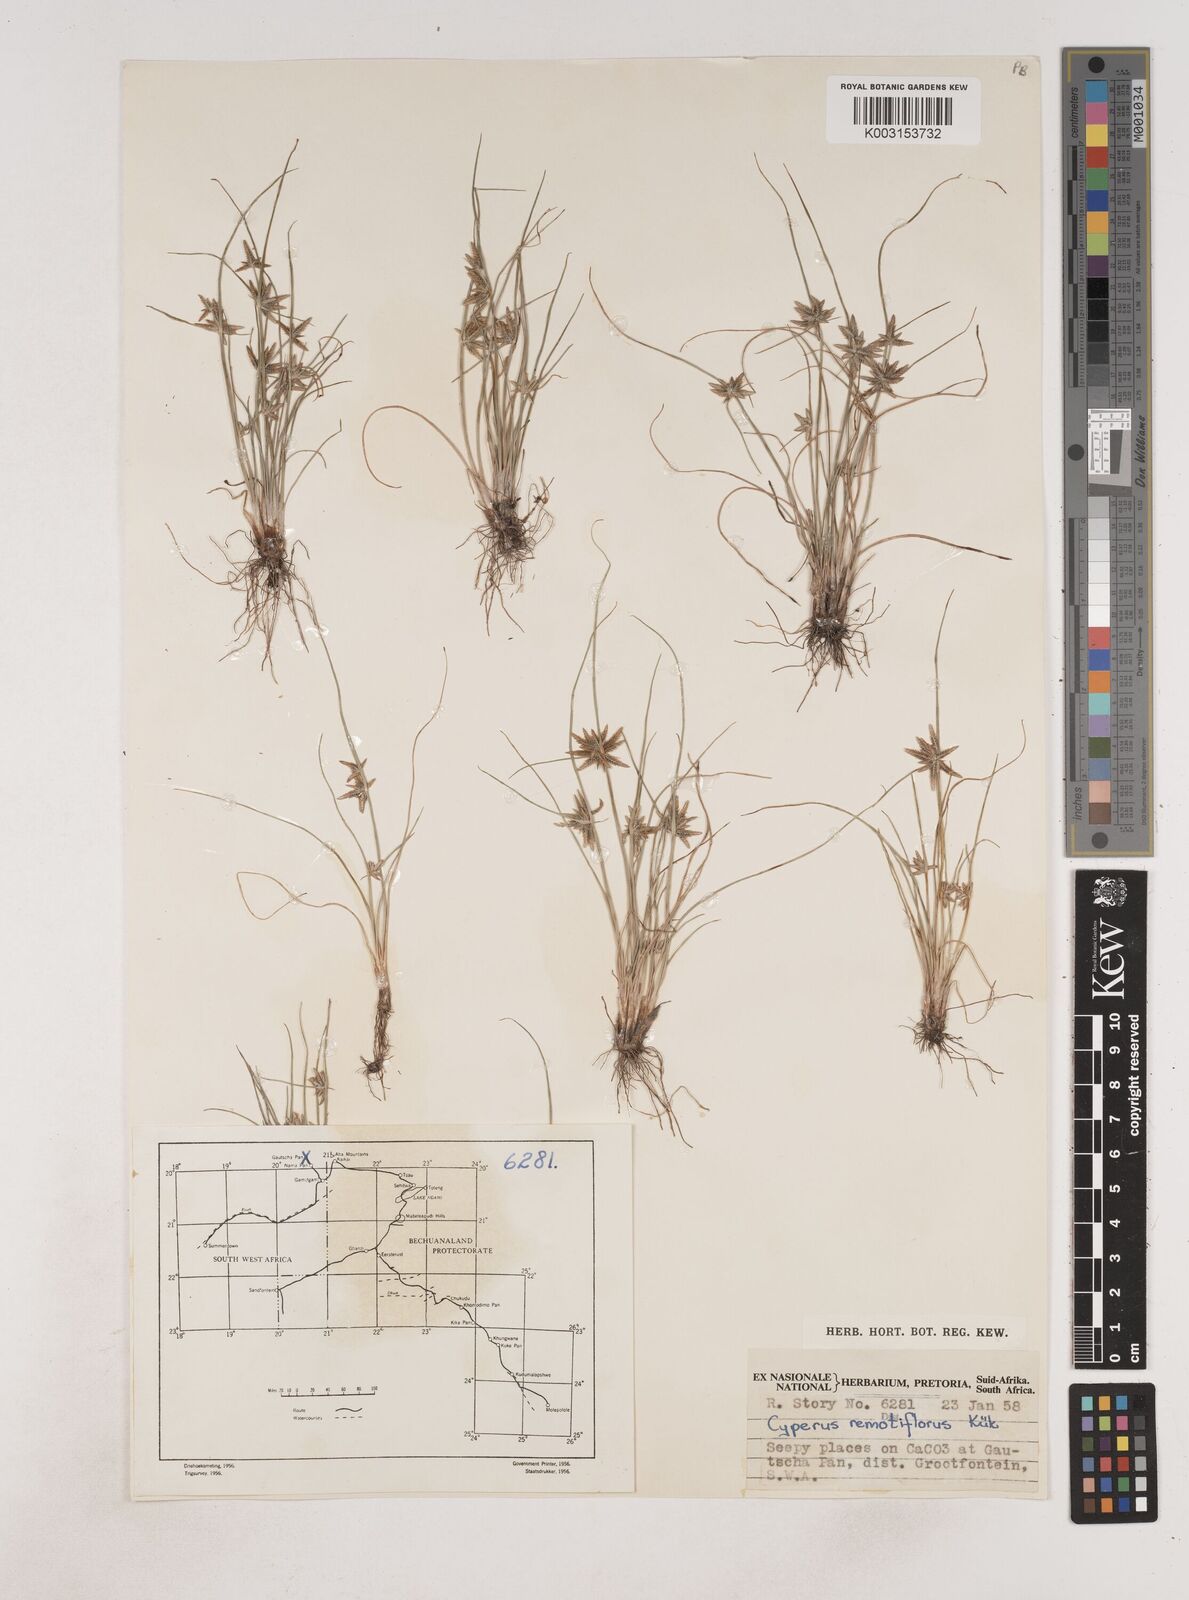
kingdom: Plantae
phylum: Tracheophyta
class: Liliopsida
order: Poales
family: Cyperaceae
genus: Cyperus
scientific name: Cyperus remotiflorus
